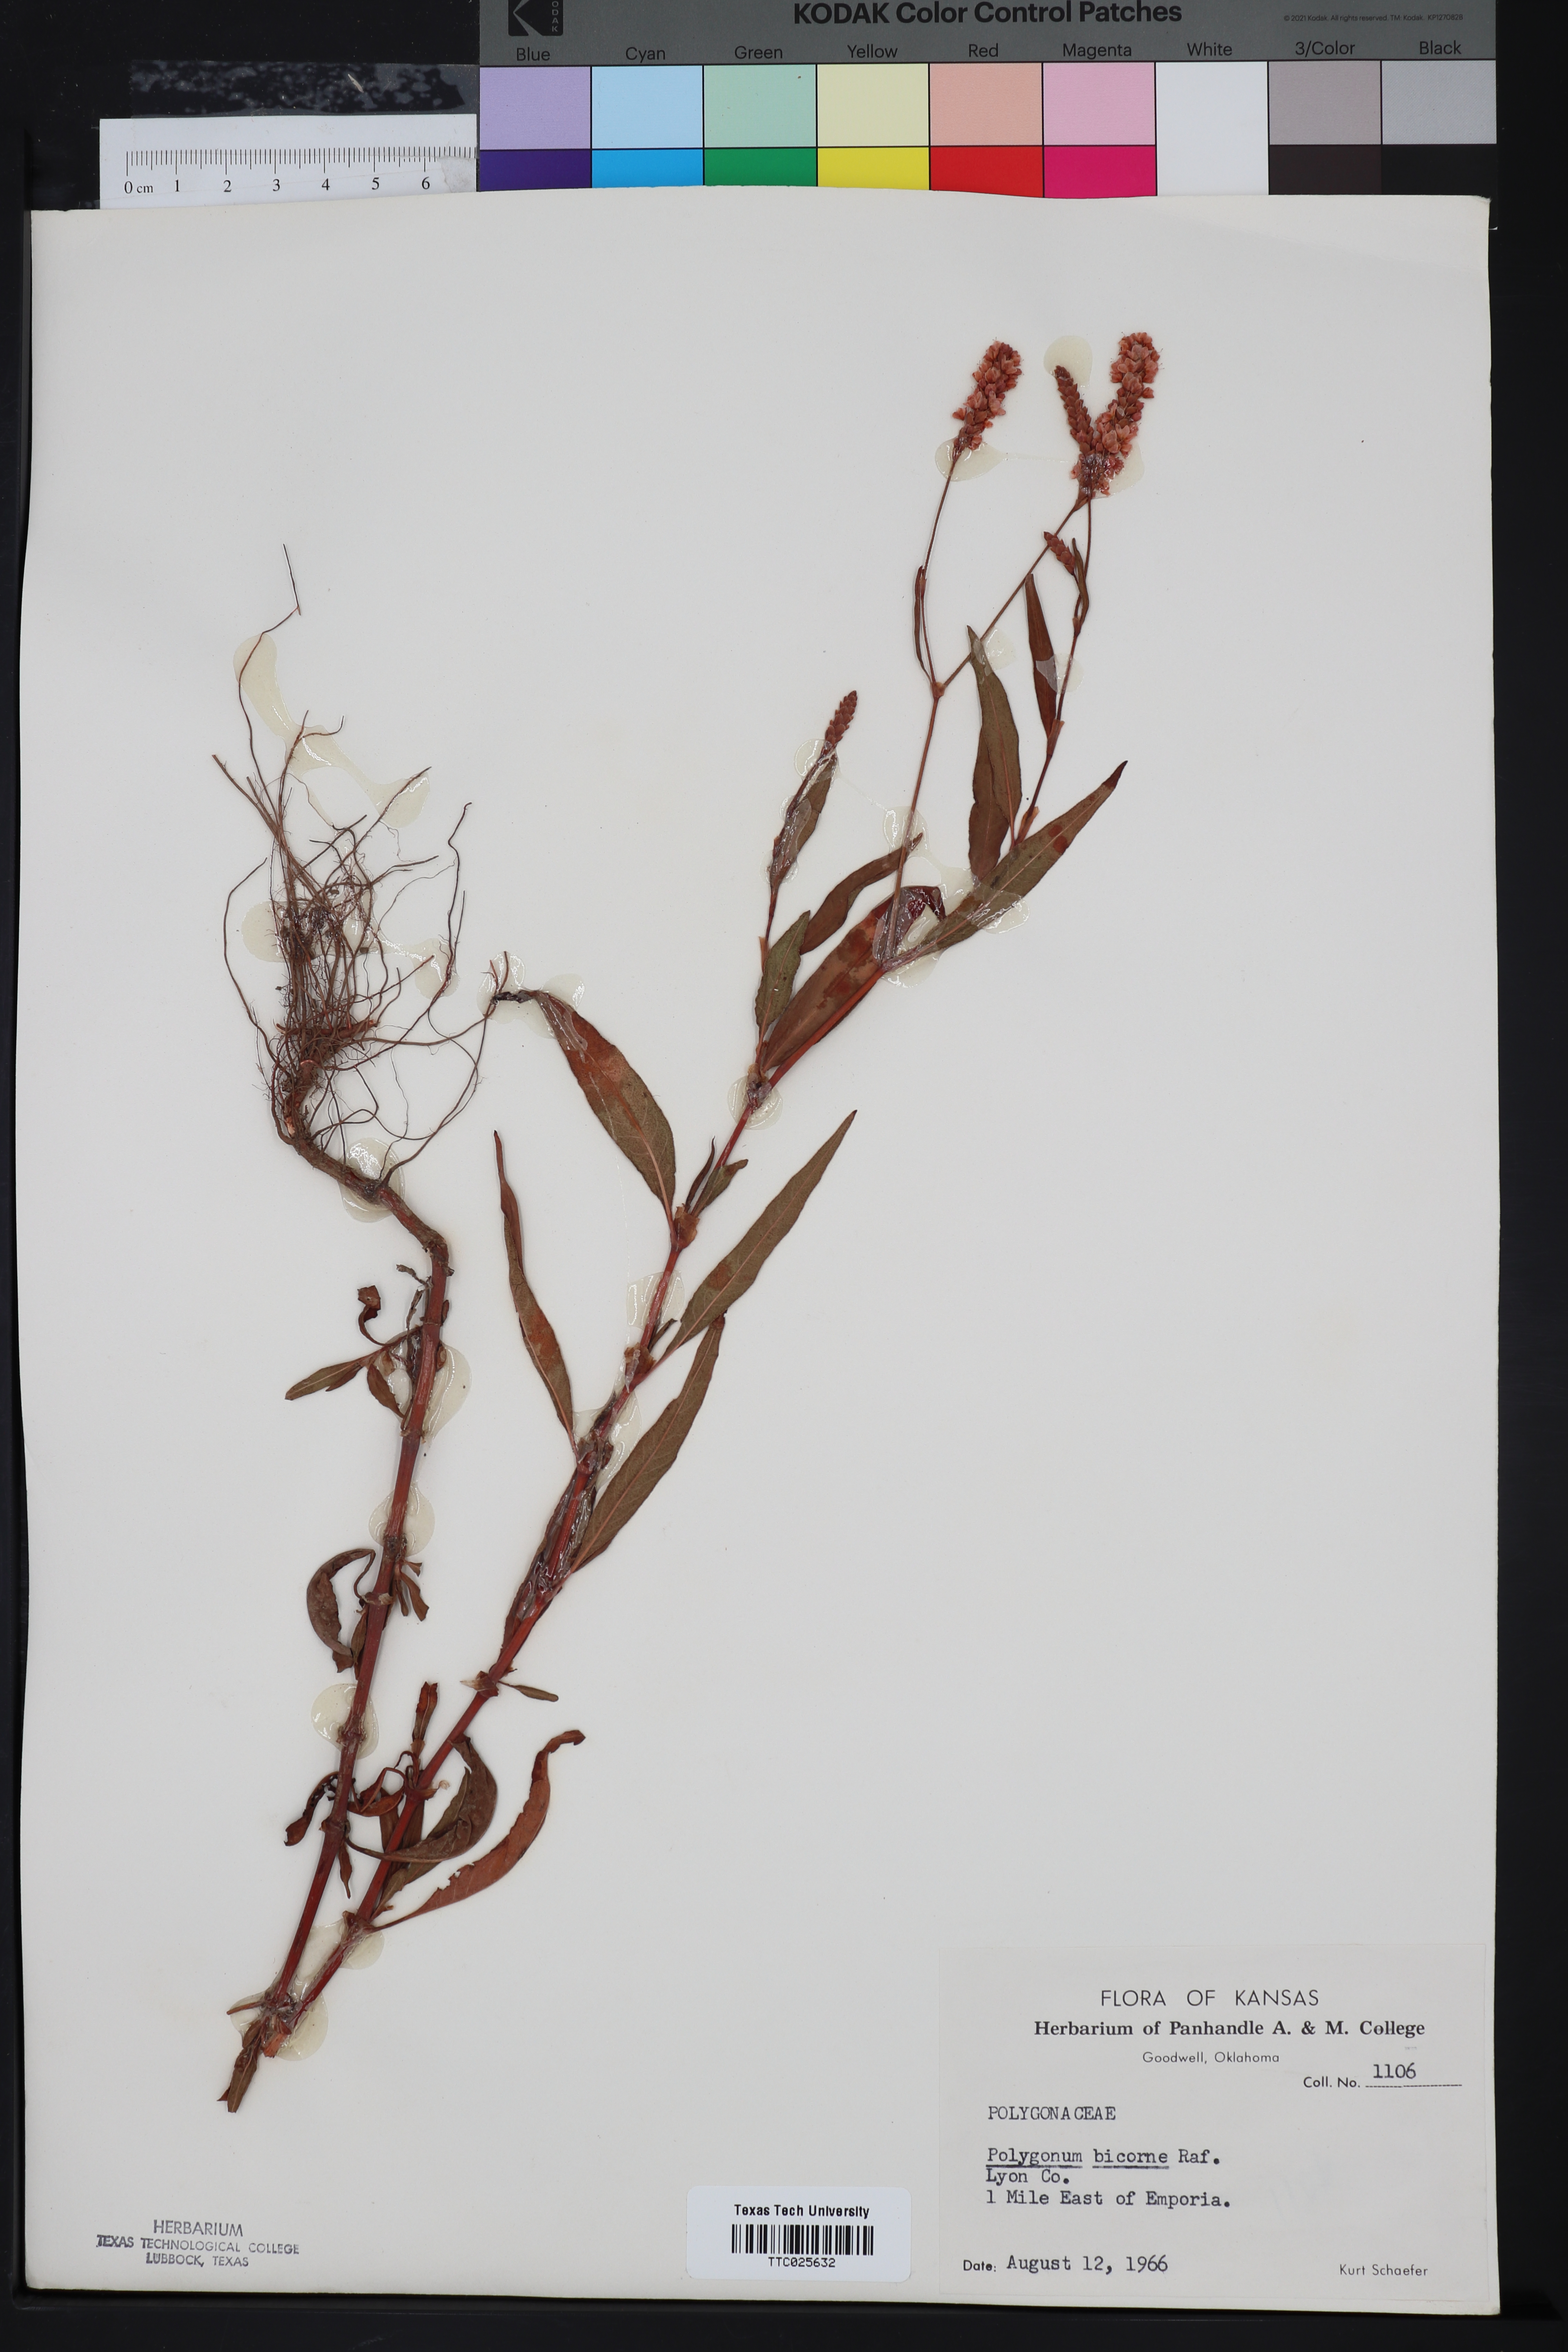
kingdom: Plantae
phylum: Tracheophyta
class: Magnoliopsida
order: Caryophyllales
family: Polygonaceae
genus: Persicaria
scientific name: Persicaria bicornis
